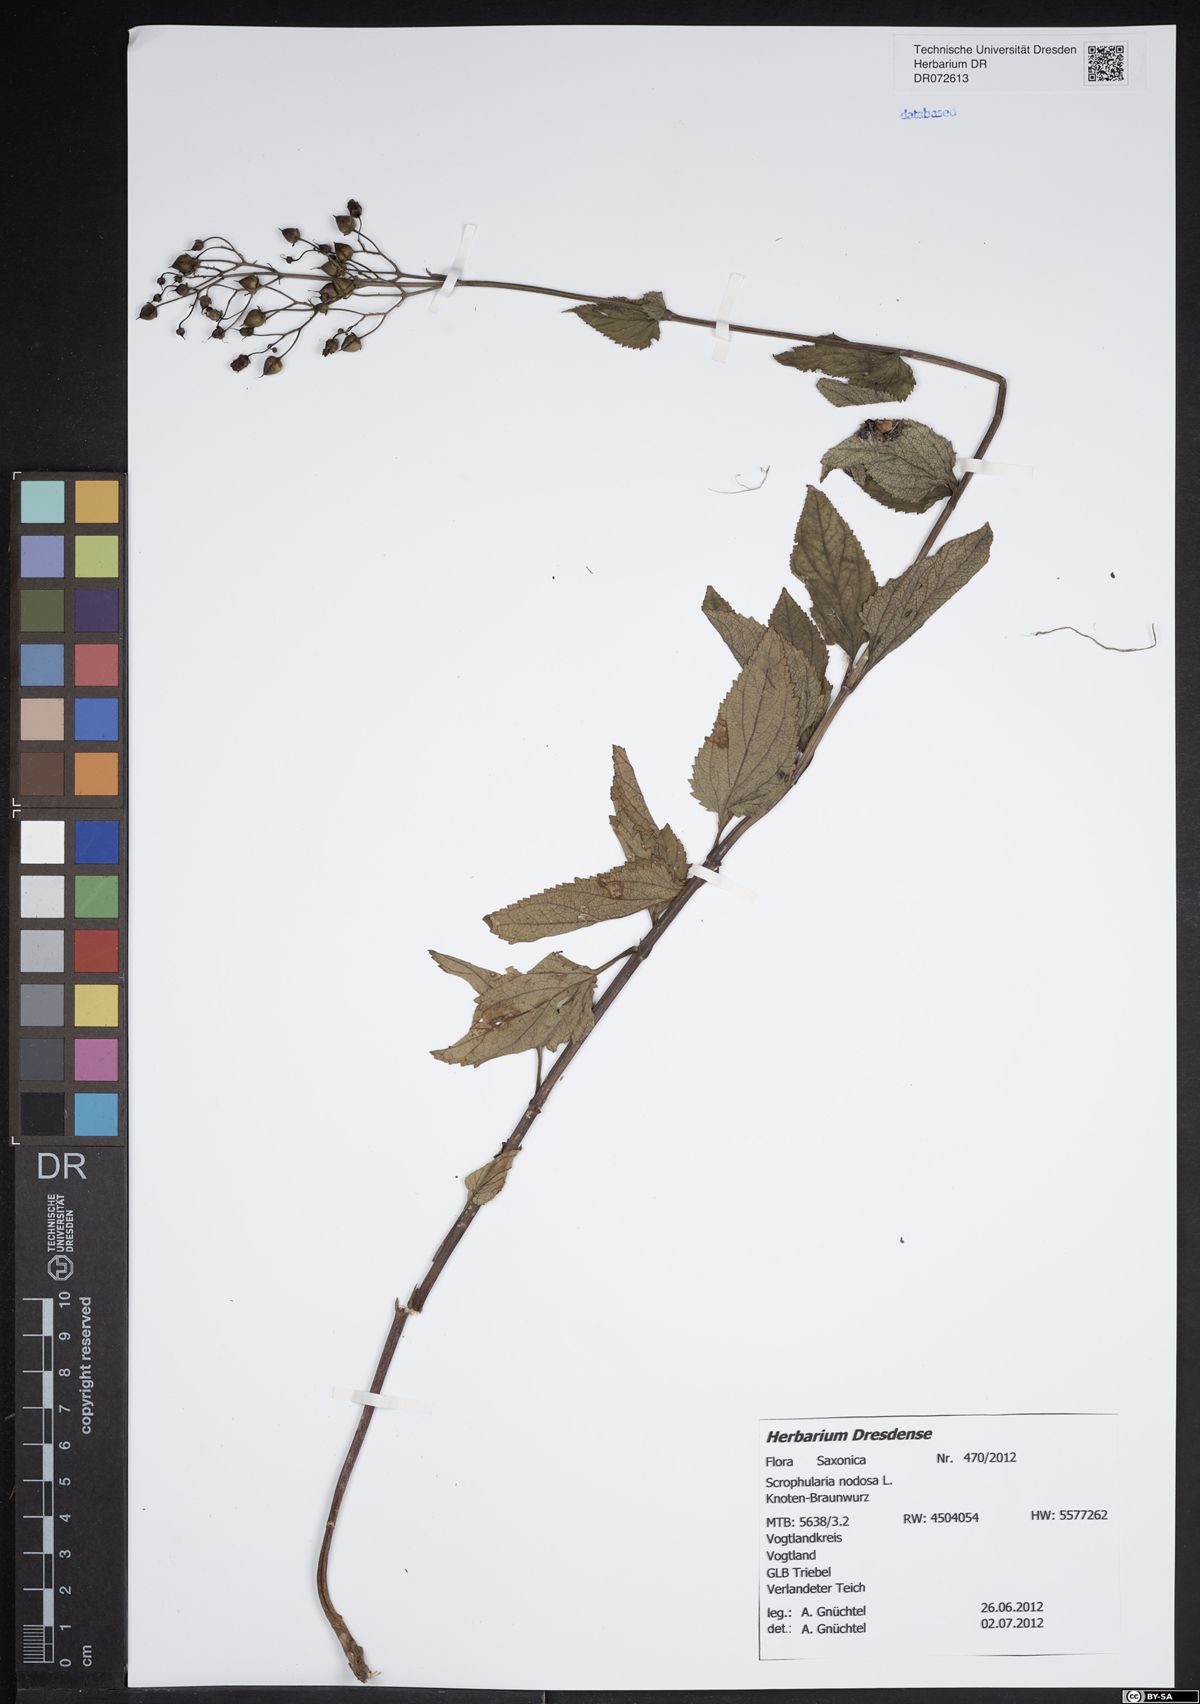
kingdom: Plantae
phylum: Tracheophyta
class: Magnoliopsida
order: Lamiales
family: Scrophulariaceae
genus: Scrophularia
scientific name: Scrophularia nodosa
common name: Common figwort
